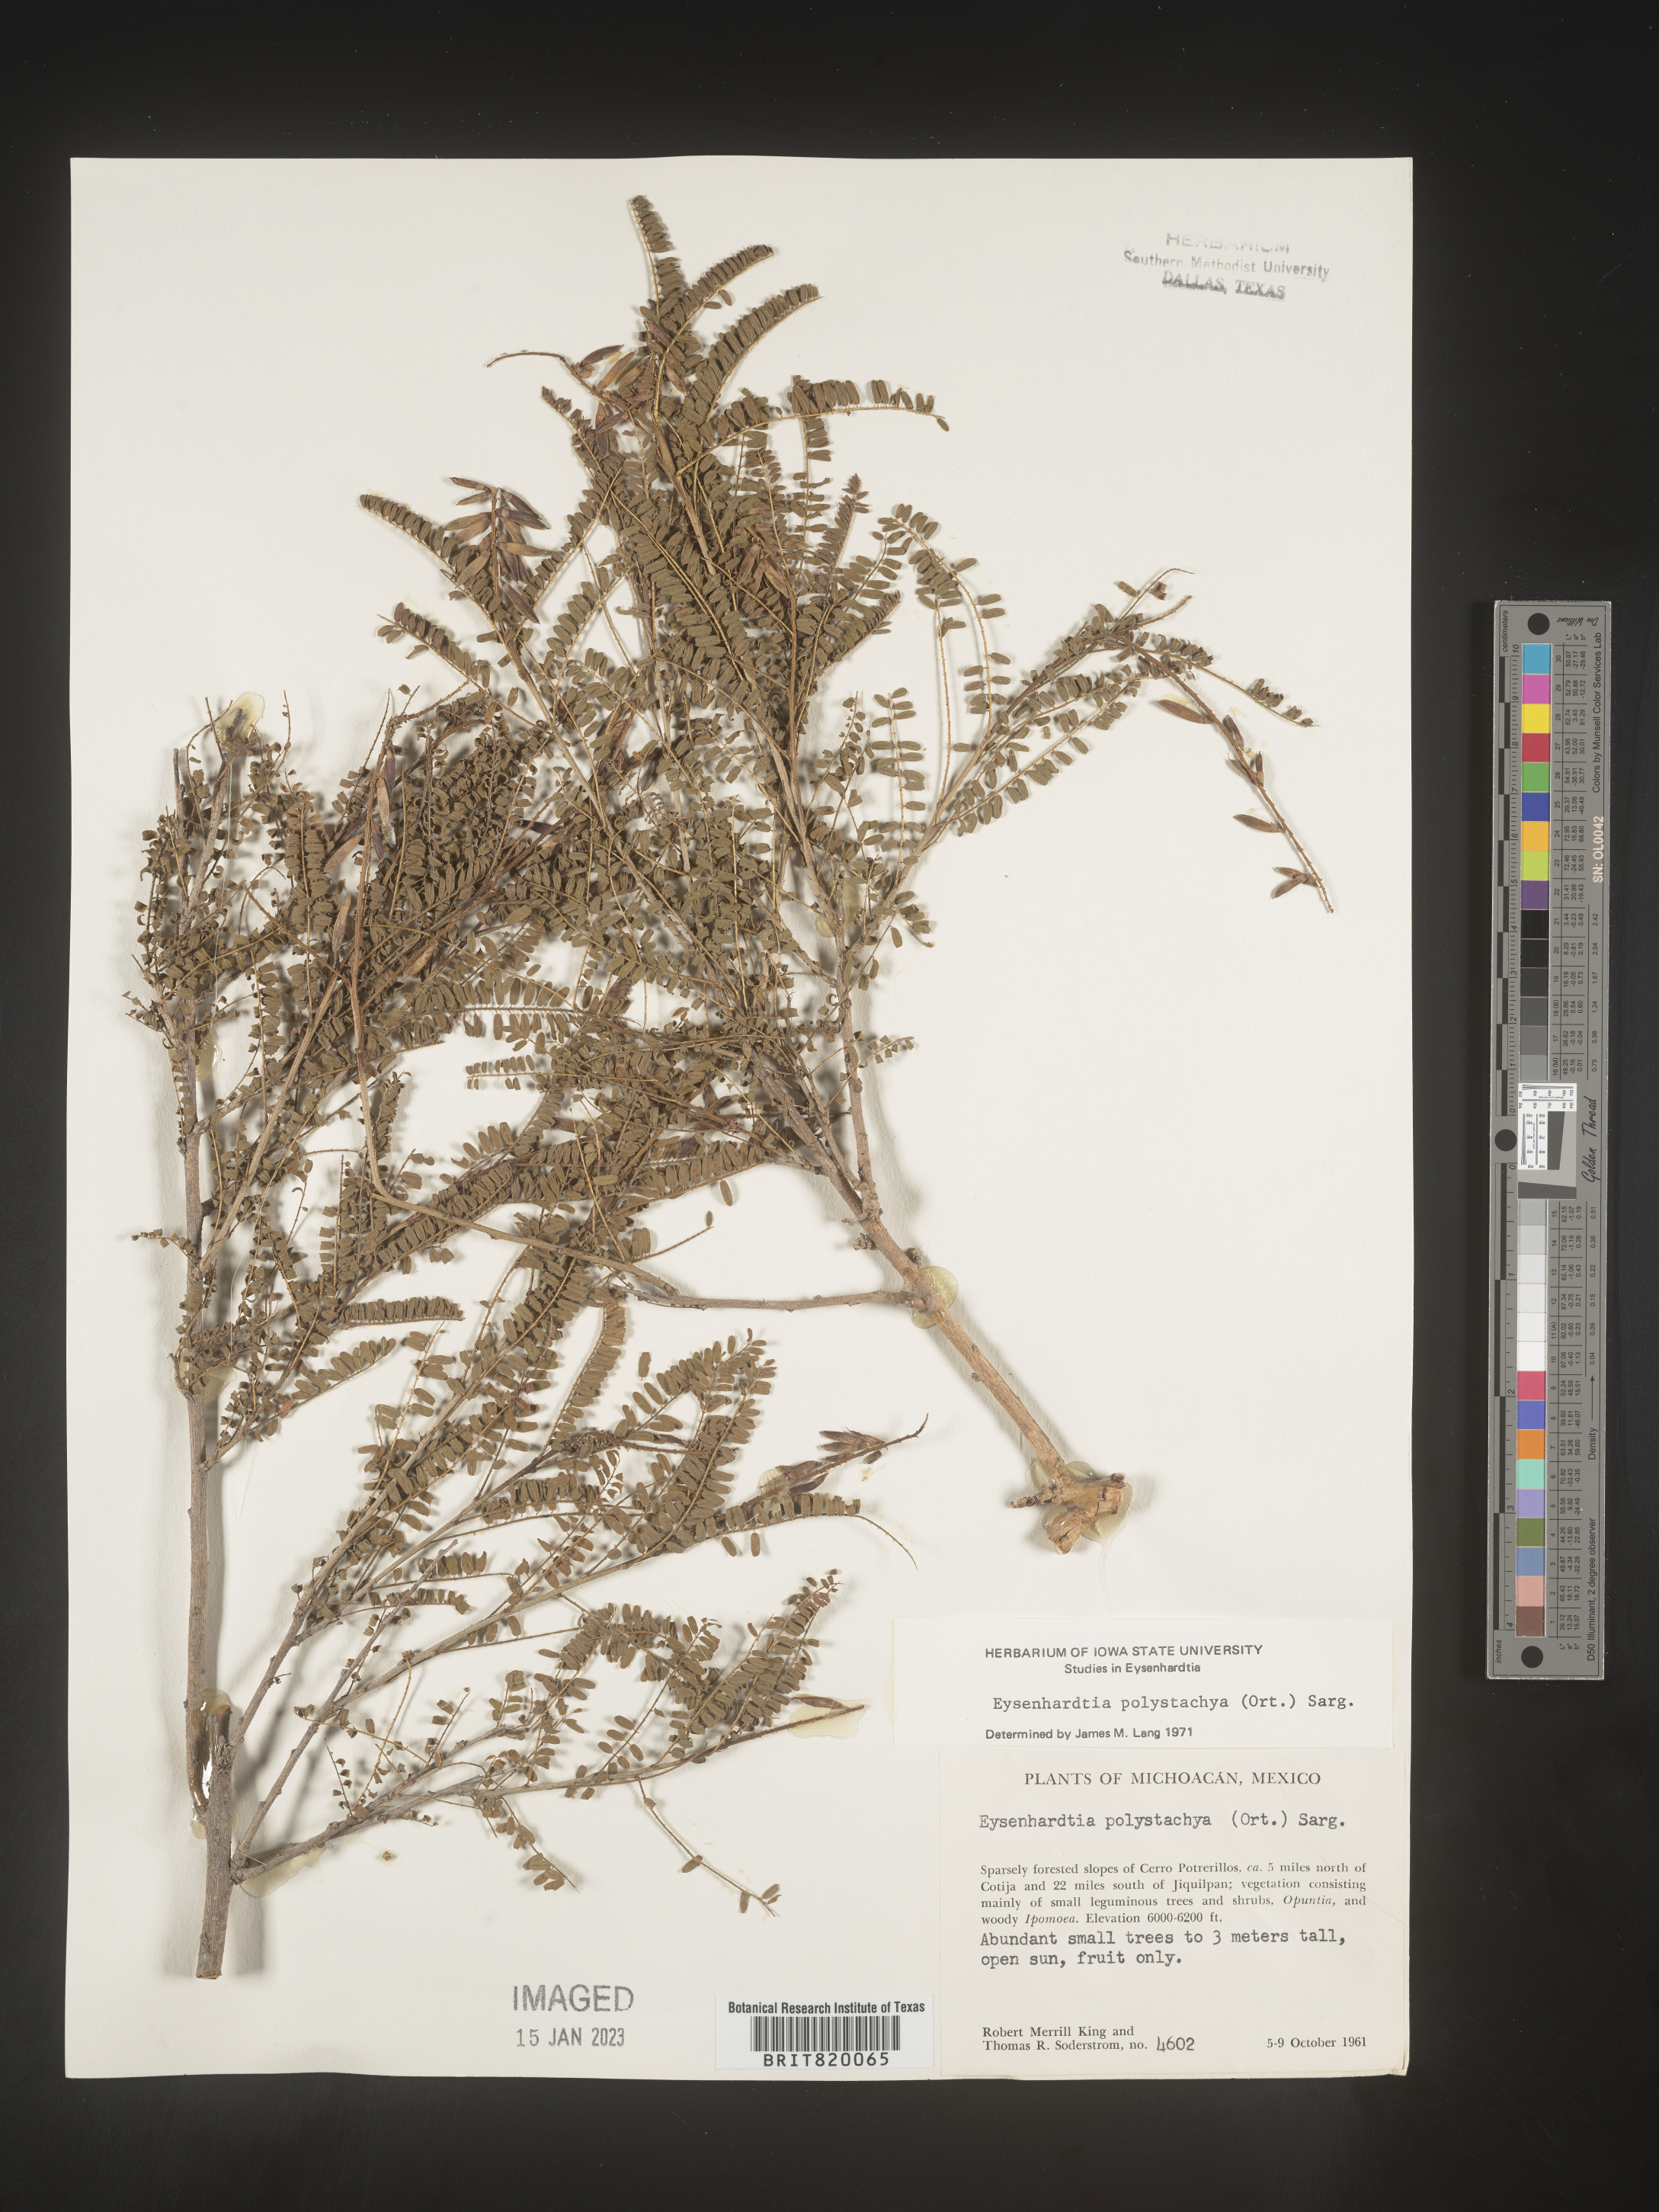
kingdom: Plantae
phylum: Tracheophyta
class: Magnoliopsida
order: Fabales
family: Fabaceae
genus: Eysenhardtia
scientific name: Eysenhardtia
